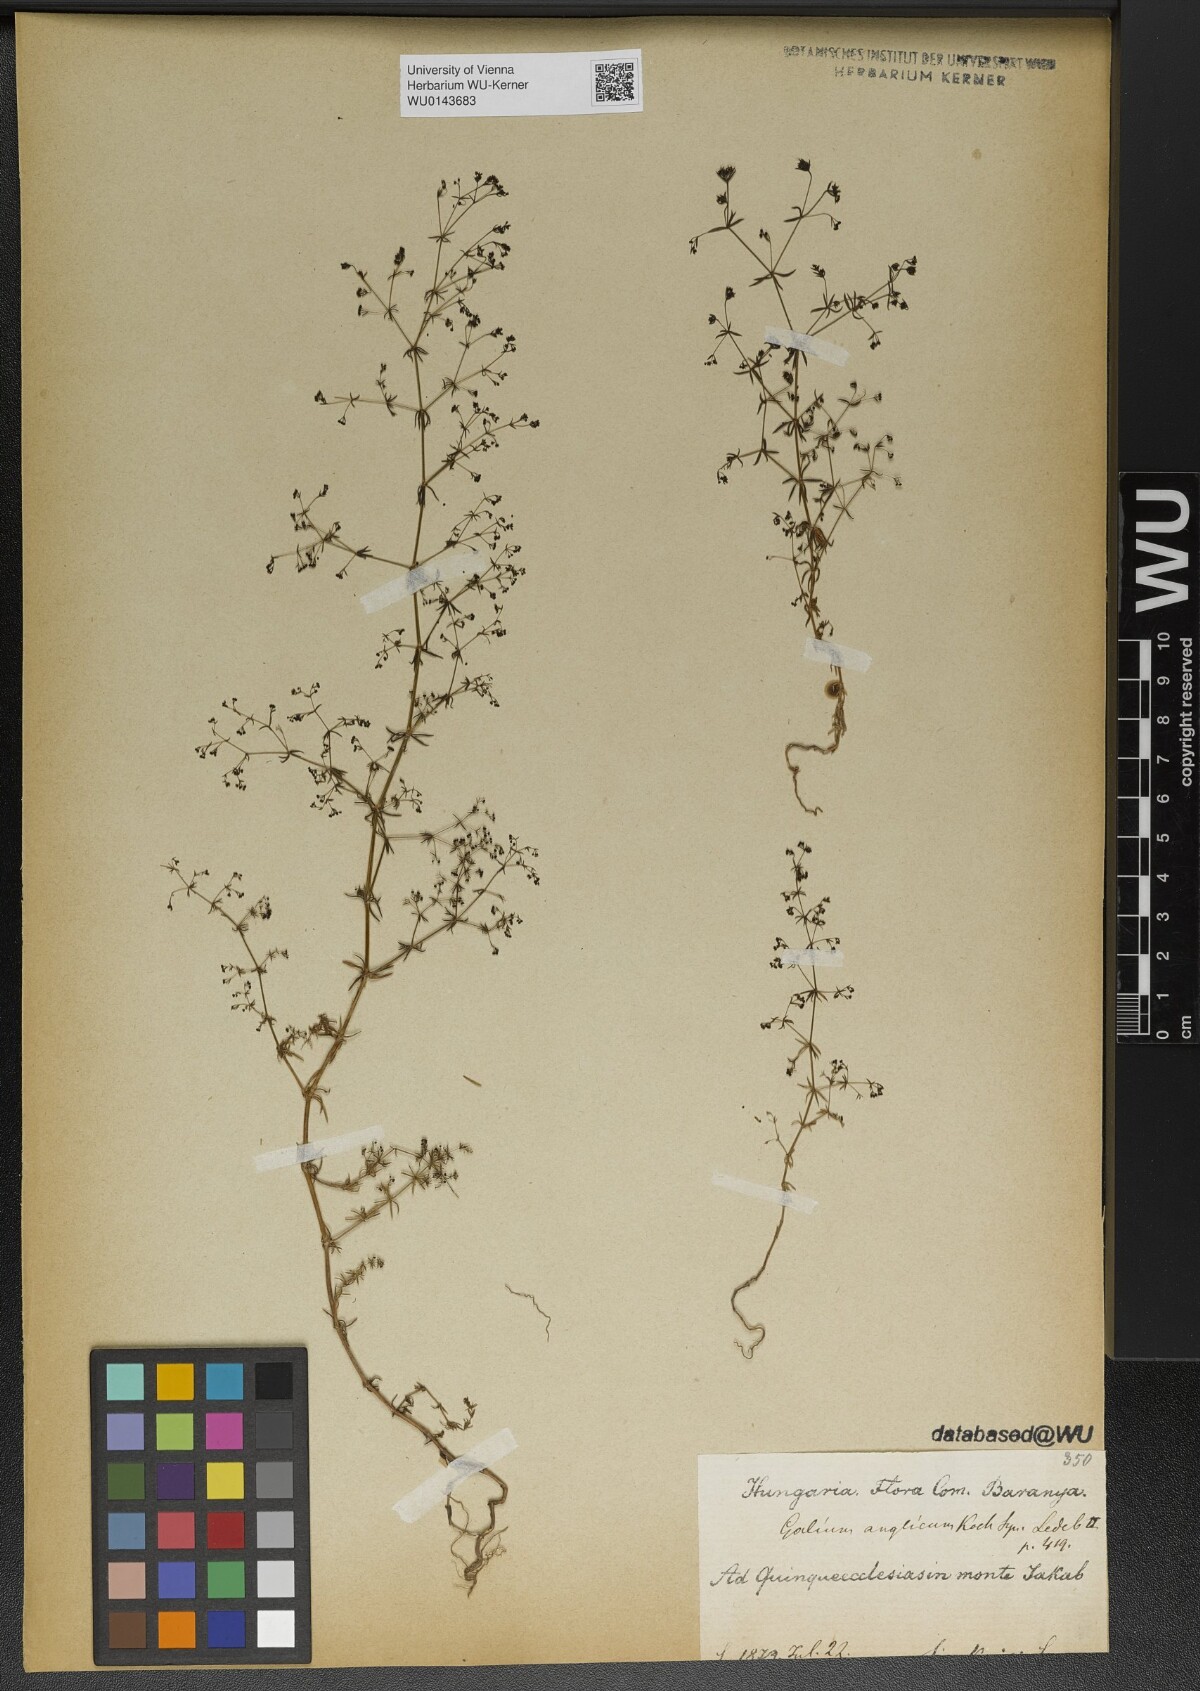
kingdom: Plantae
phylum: Tracheophyta
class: Magnoliopsida
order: Gentianales
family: Rubiaceae
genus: Galium
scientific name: Galium parisiense
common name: Wall bedstraw
